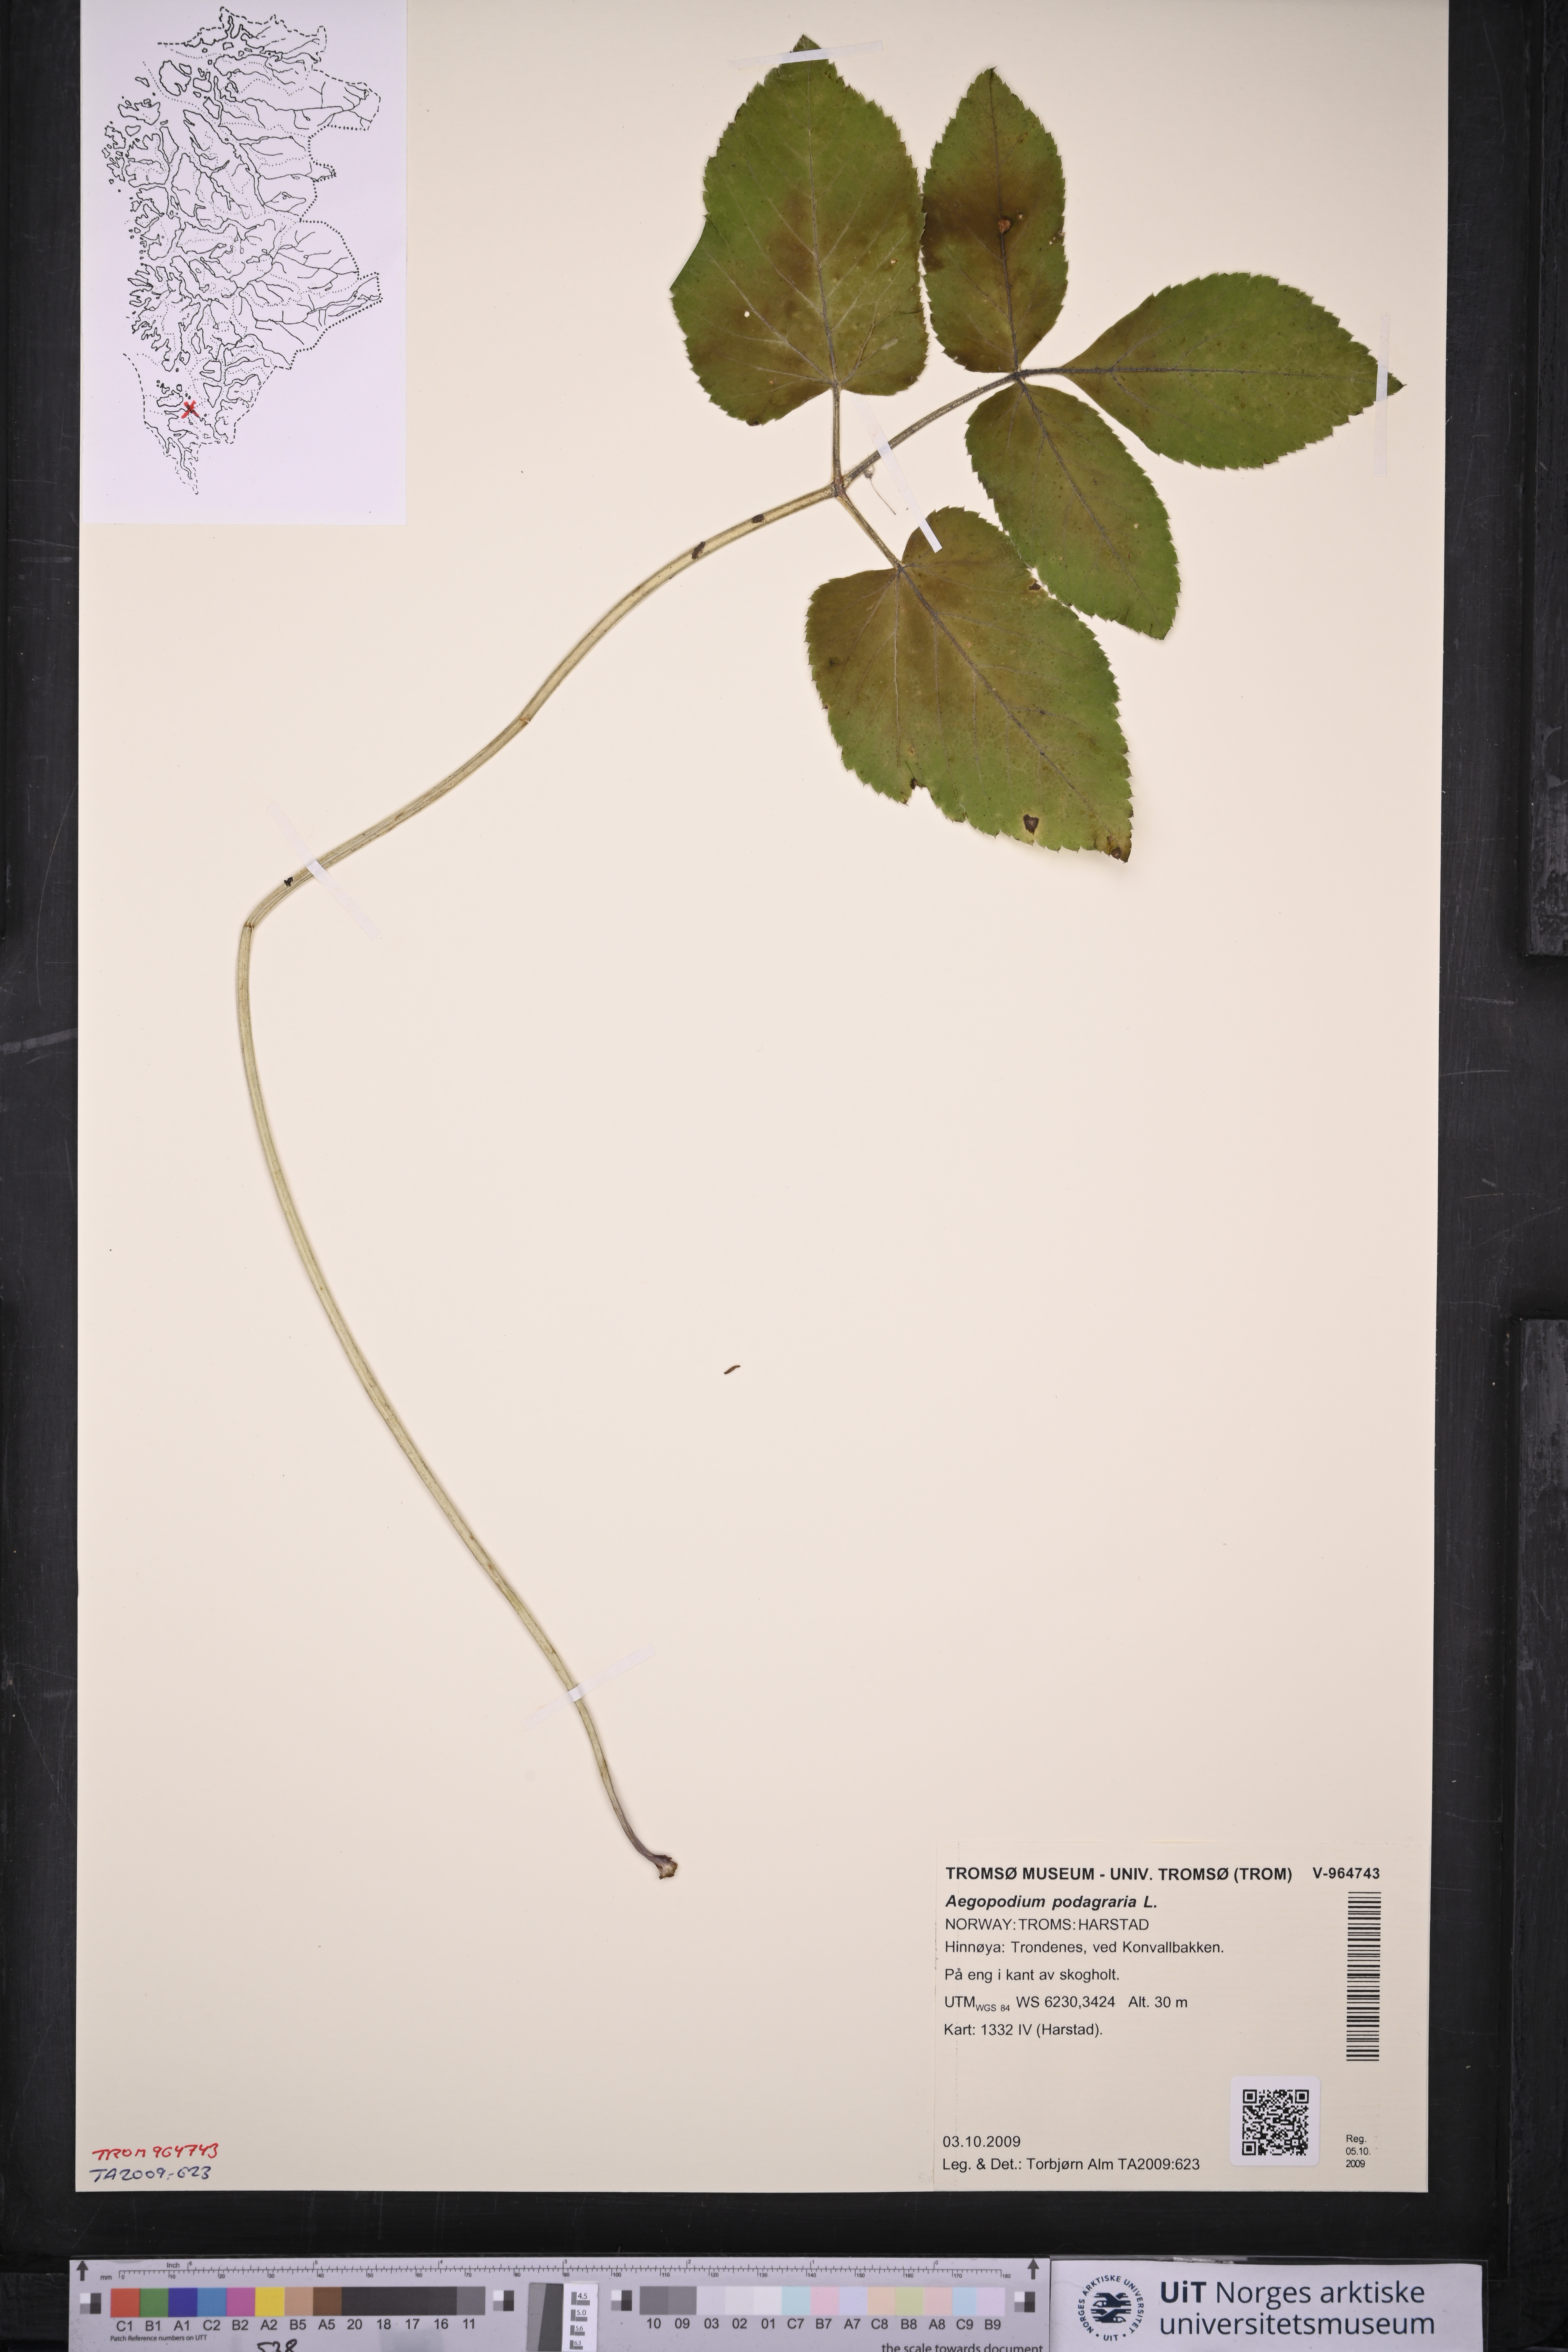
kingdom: Plantae
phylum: Tracheophyta
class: Magnoliopsida
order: Apiales
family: Apiaceae
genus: Aegopodium
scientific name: Aegopodium podagraria
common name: Ground-elder
